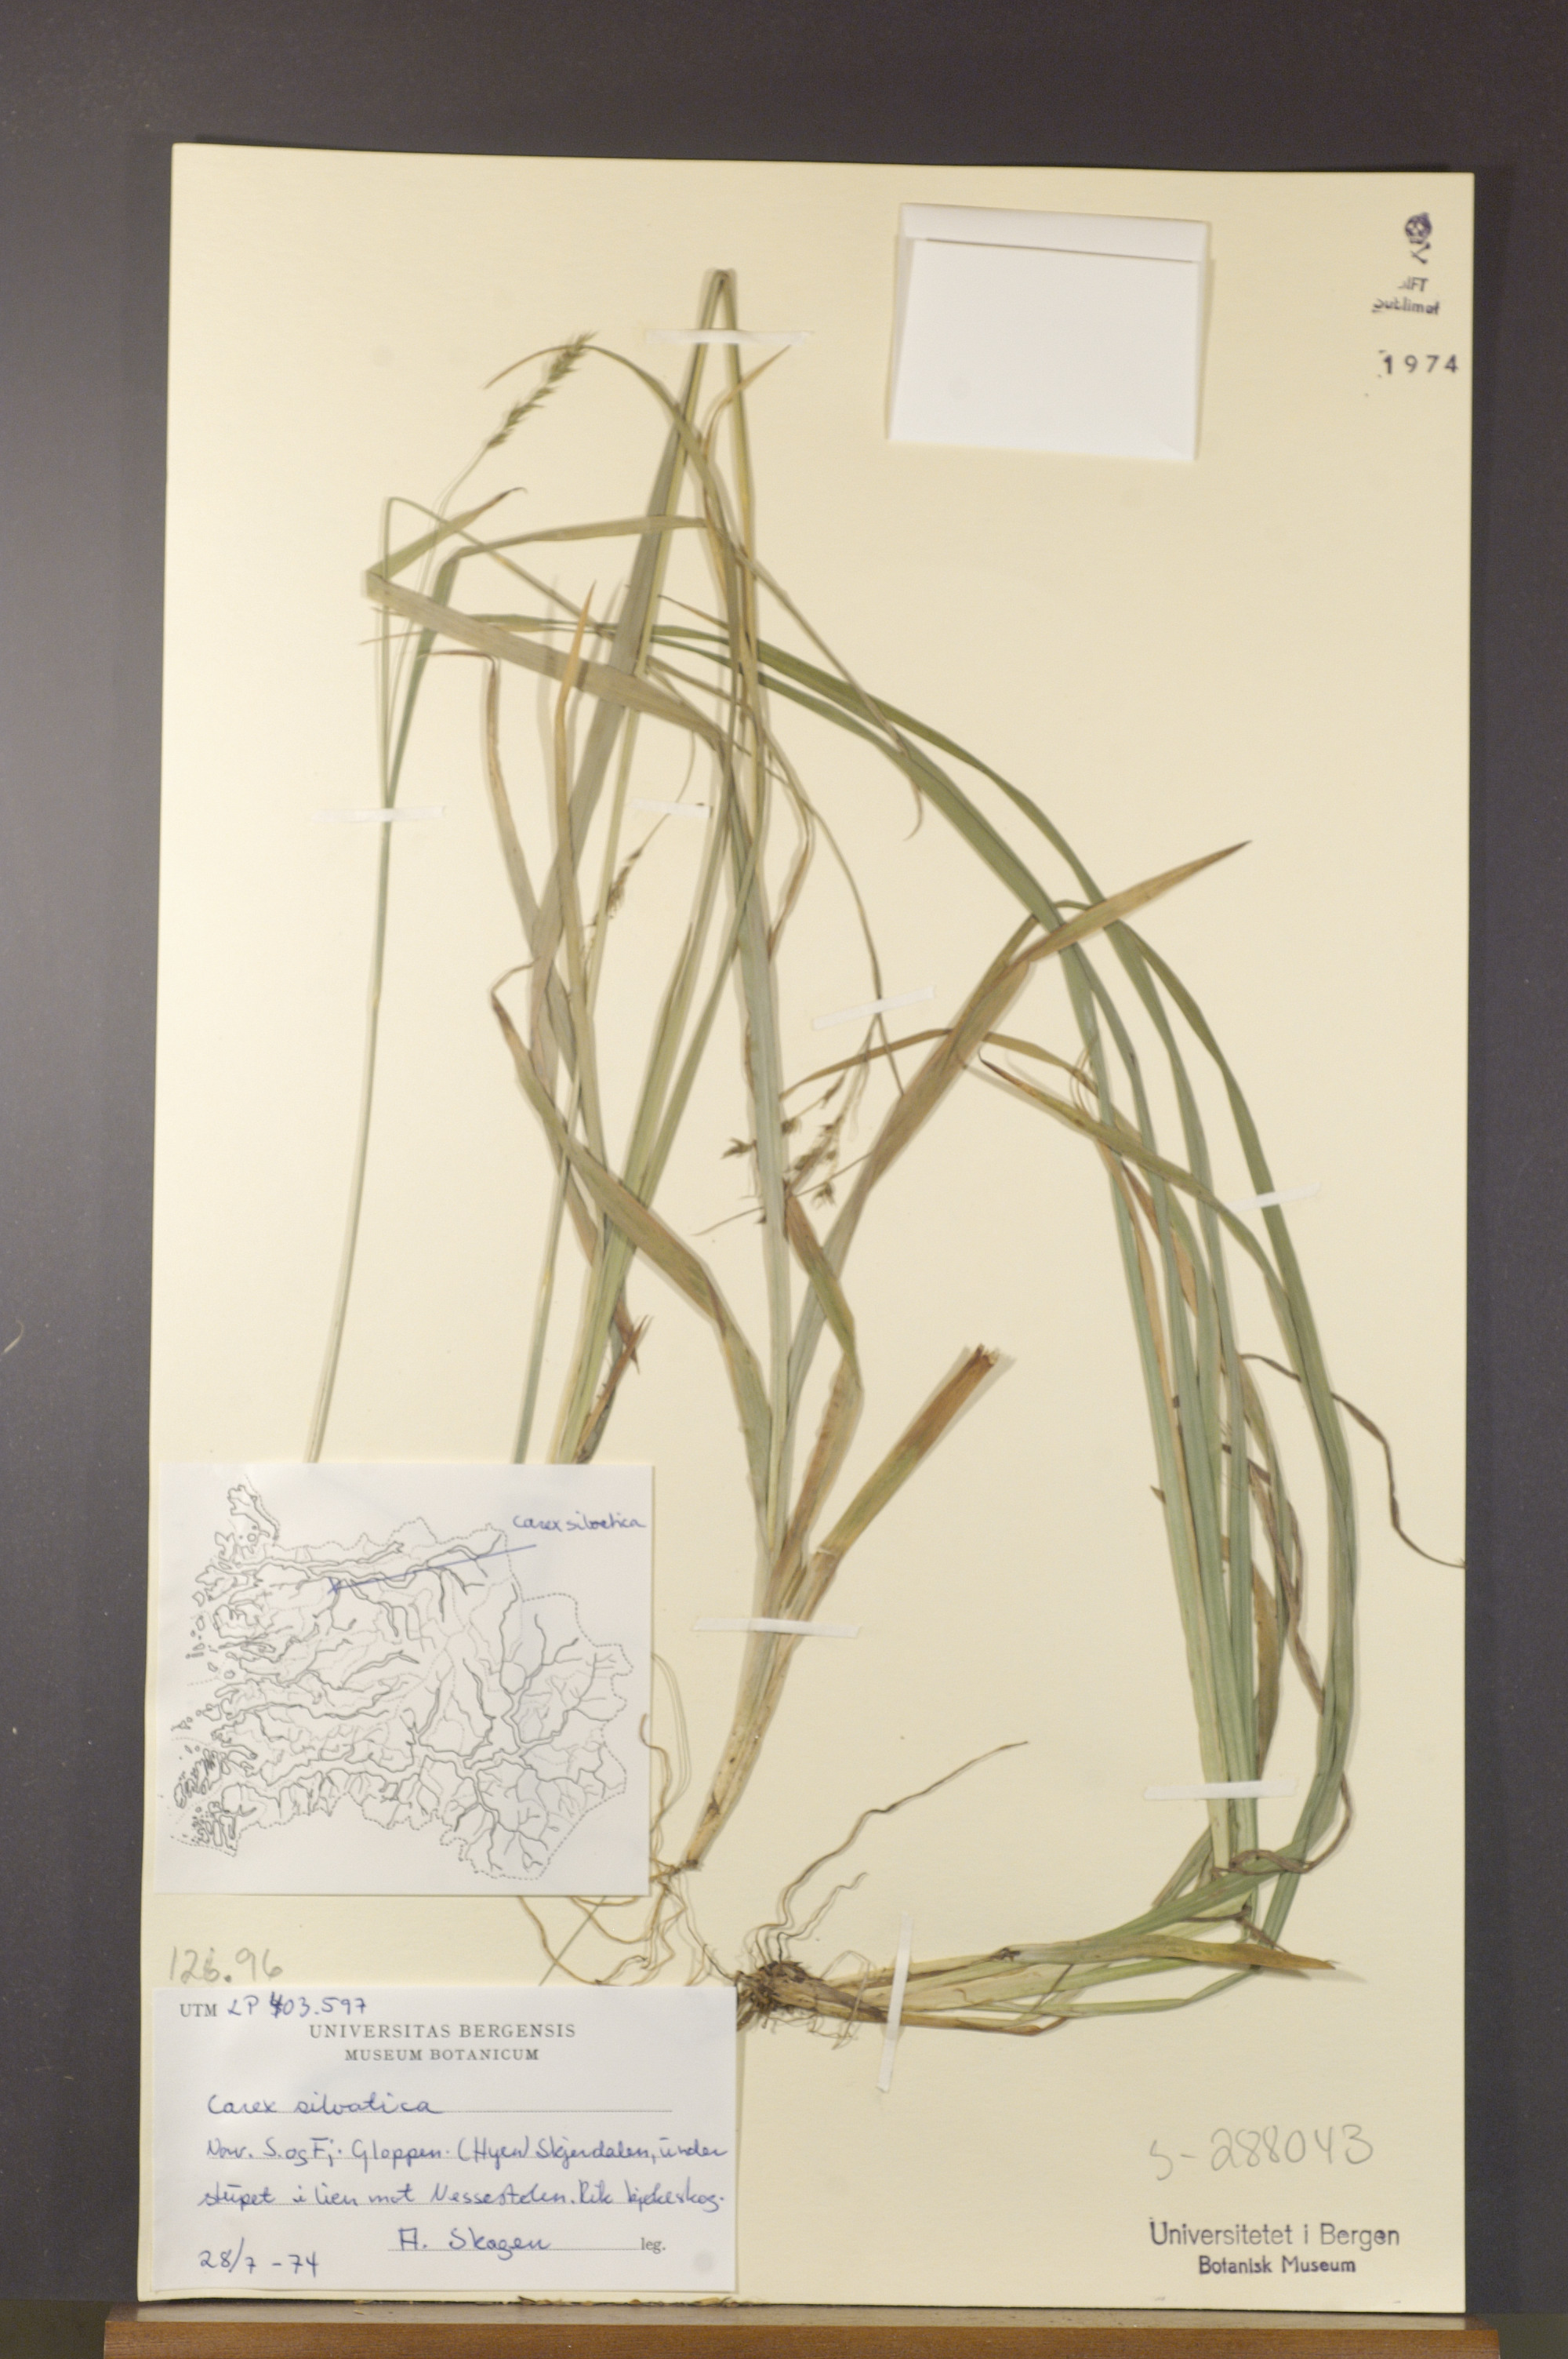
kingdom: Plantae
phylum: Tracheophyta
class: Liliopsida
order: Poales
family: Cyperaceae
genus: Carex
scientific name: Carex sylvatica
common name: Wood-sedge
